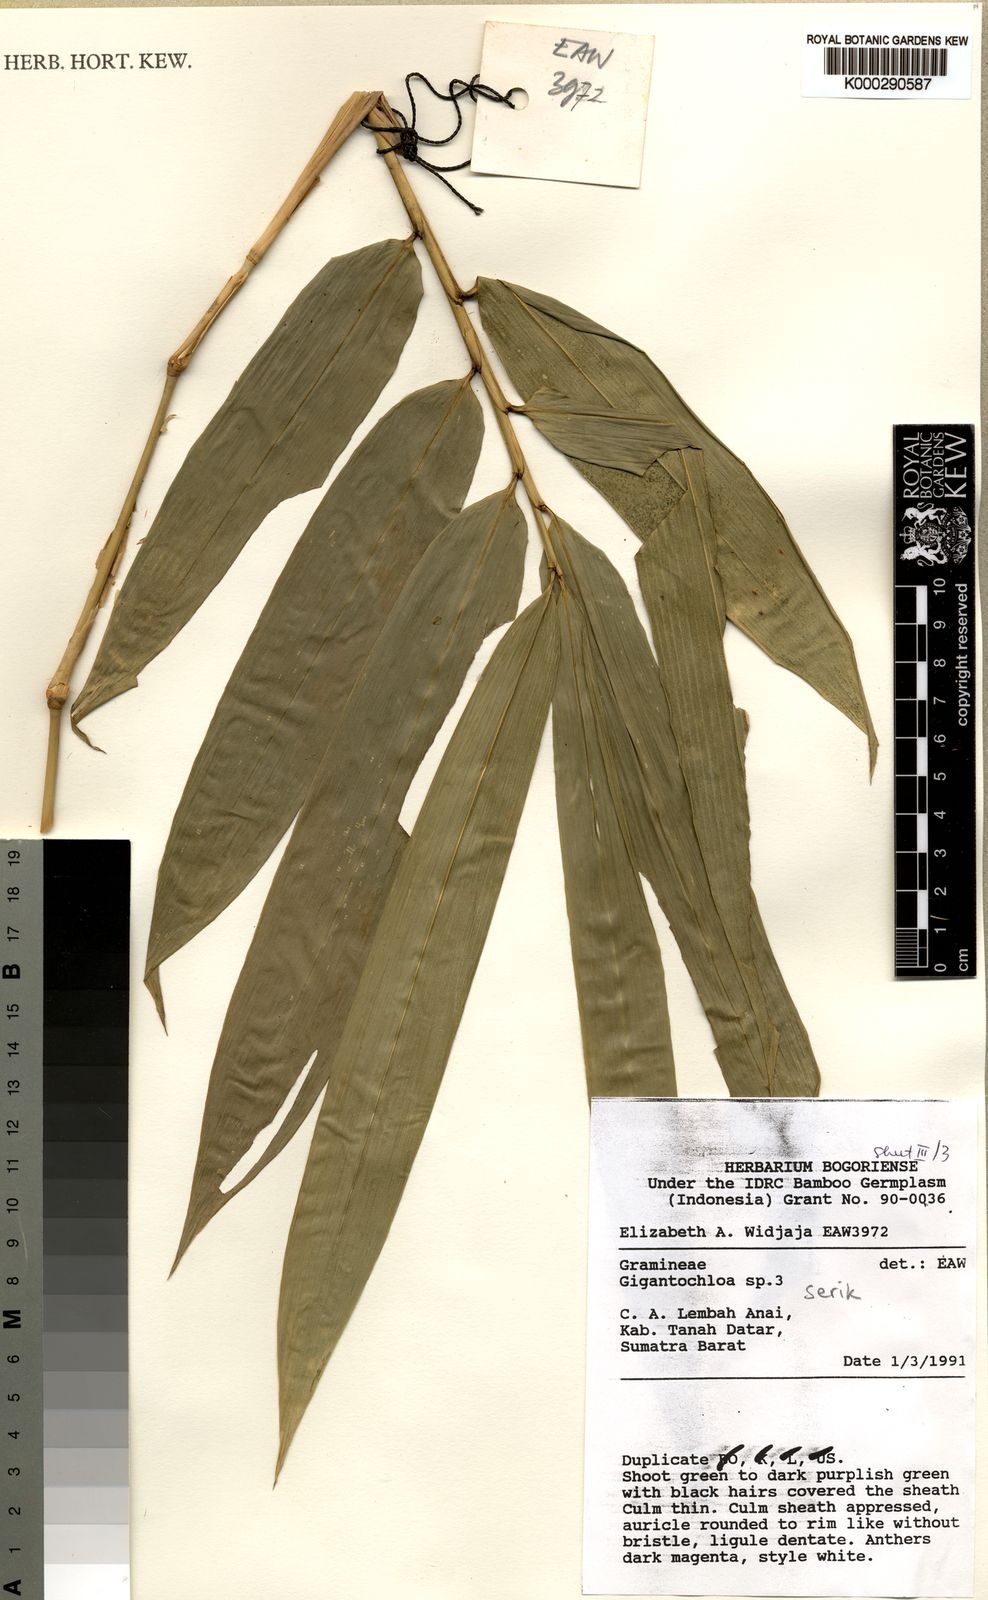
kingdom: Plantae
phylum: Tracheophyta
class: Liliopsida
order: Poales
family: Poaceae
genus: Gigantochloa
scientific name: Gigantochloa serik
